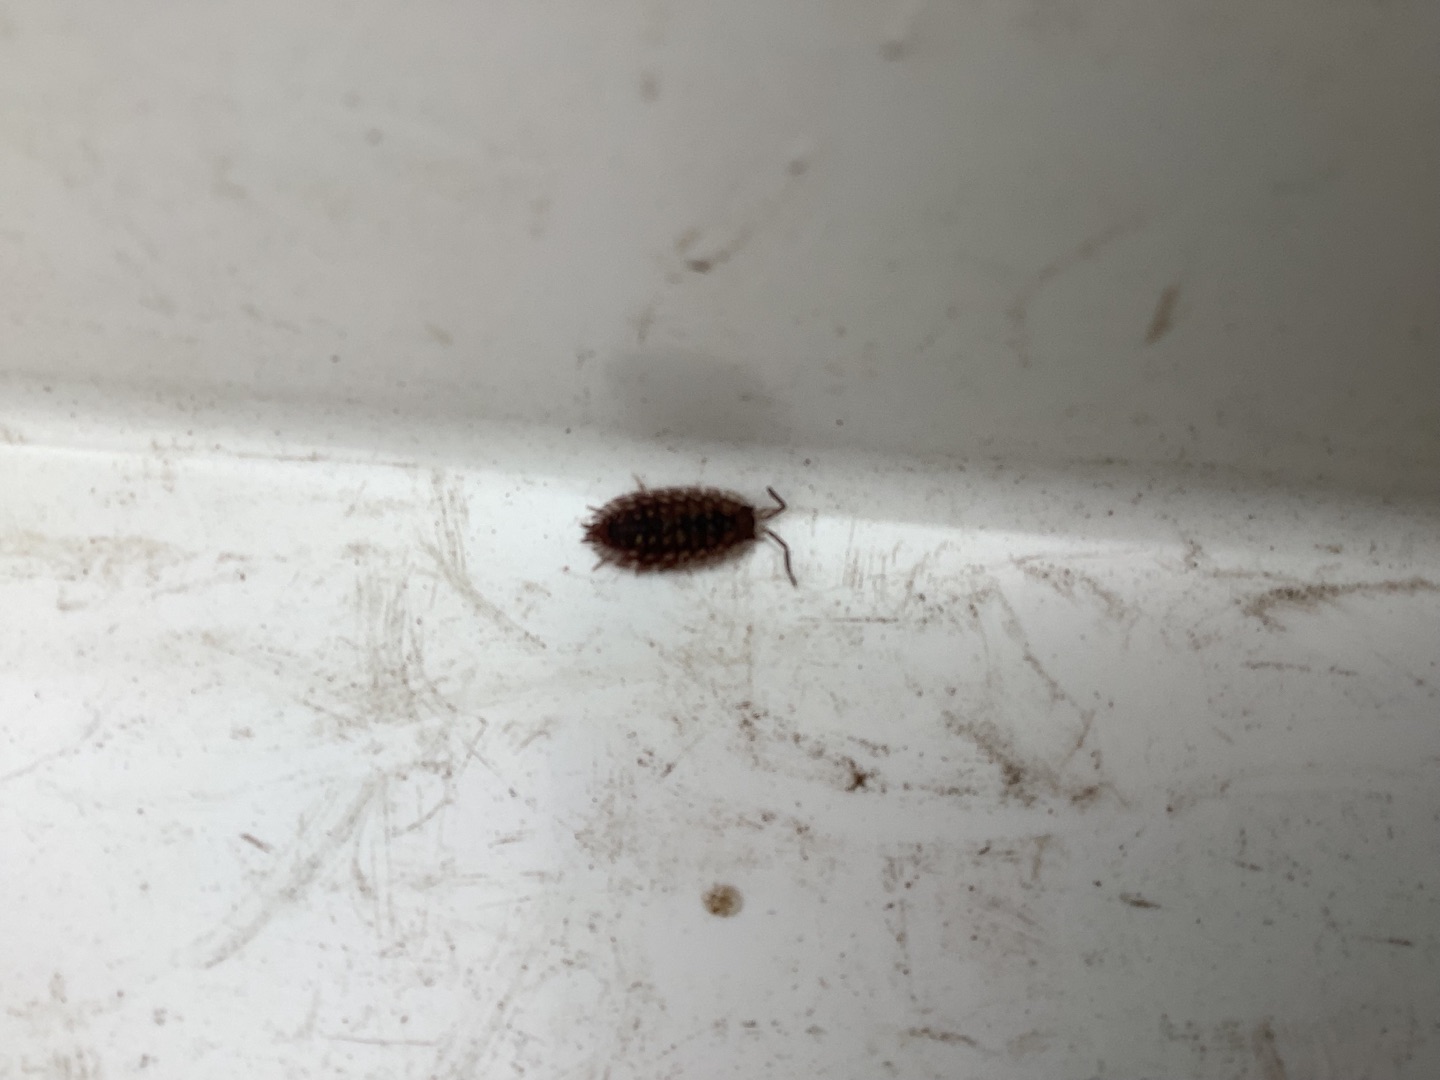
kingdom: Animalia
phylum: Arthropoda
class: Malacostraca
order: Isopoda
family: Oniscidae
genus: Oniscus
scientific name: Oniscus asellus
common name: Glat bænkebider
